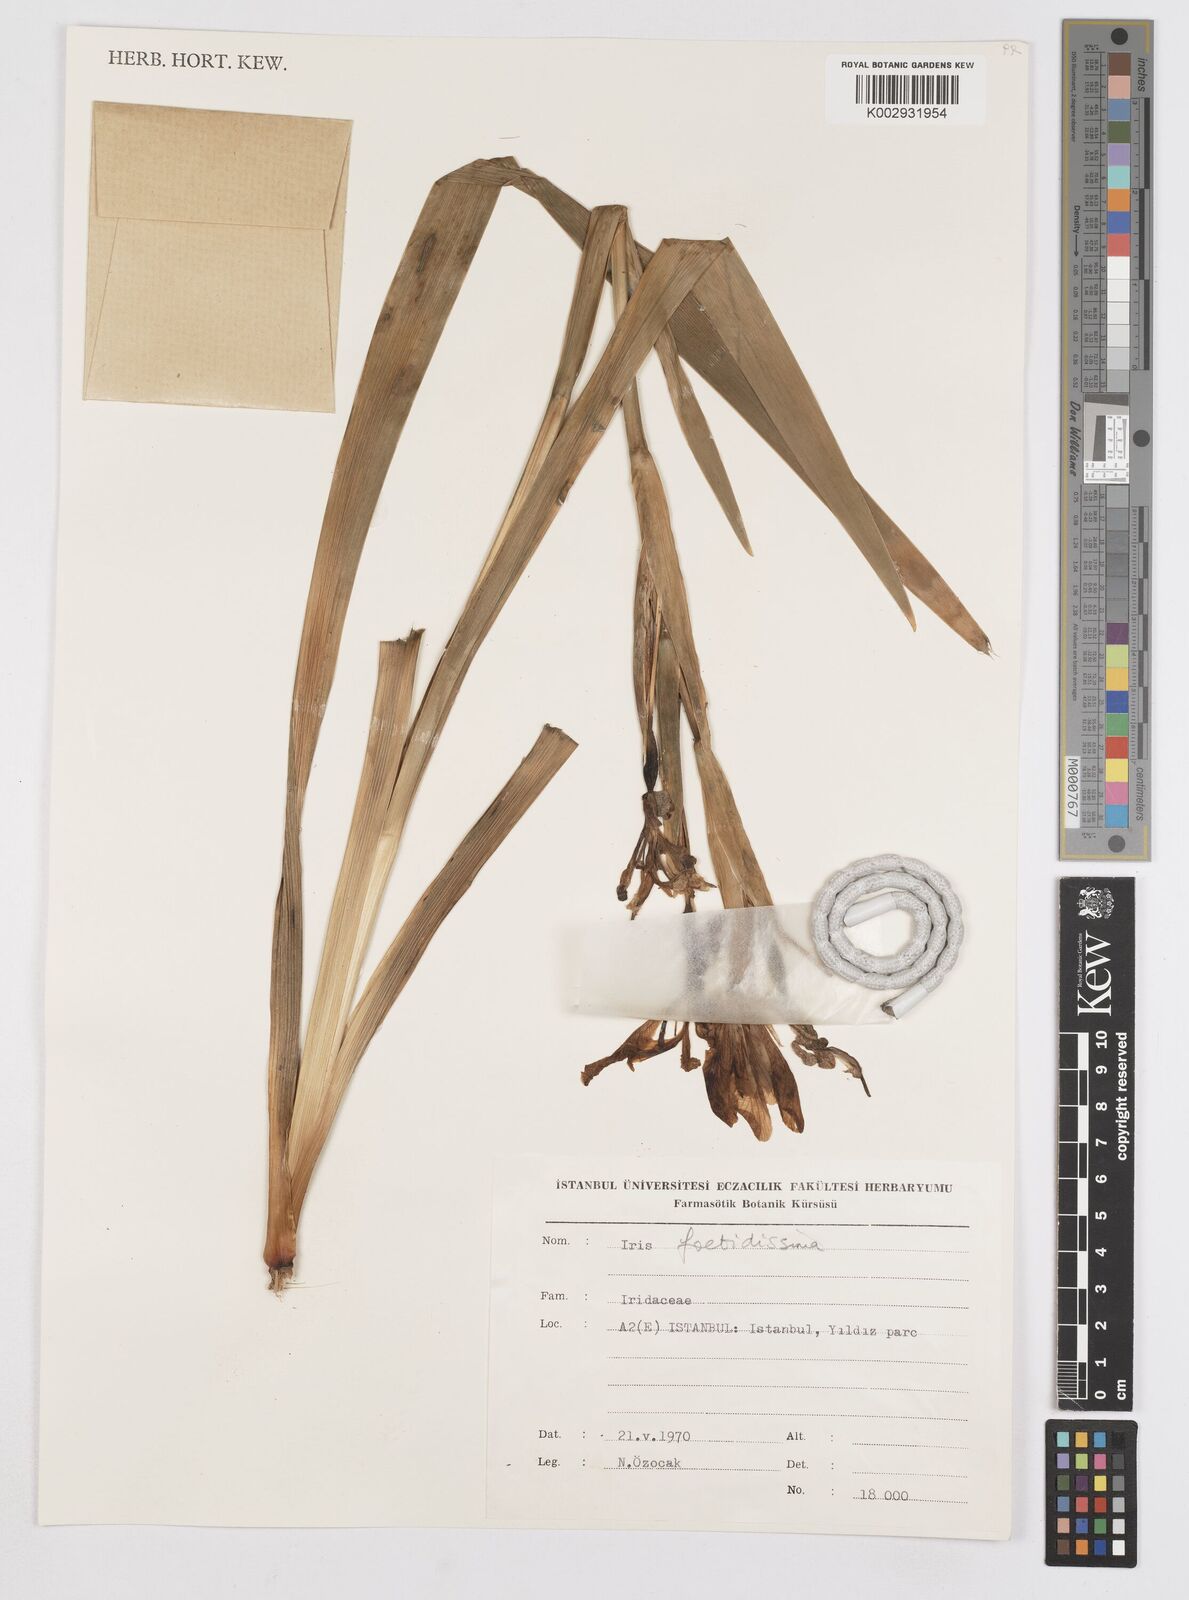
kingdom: Plantae
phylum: Tracheophyta
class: Liliopsida
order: Asparagales
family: Iridaceae
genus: Iris
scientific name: Iris foetidissima
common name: Stinking iris
